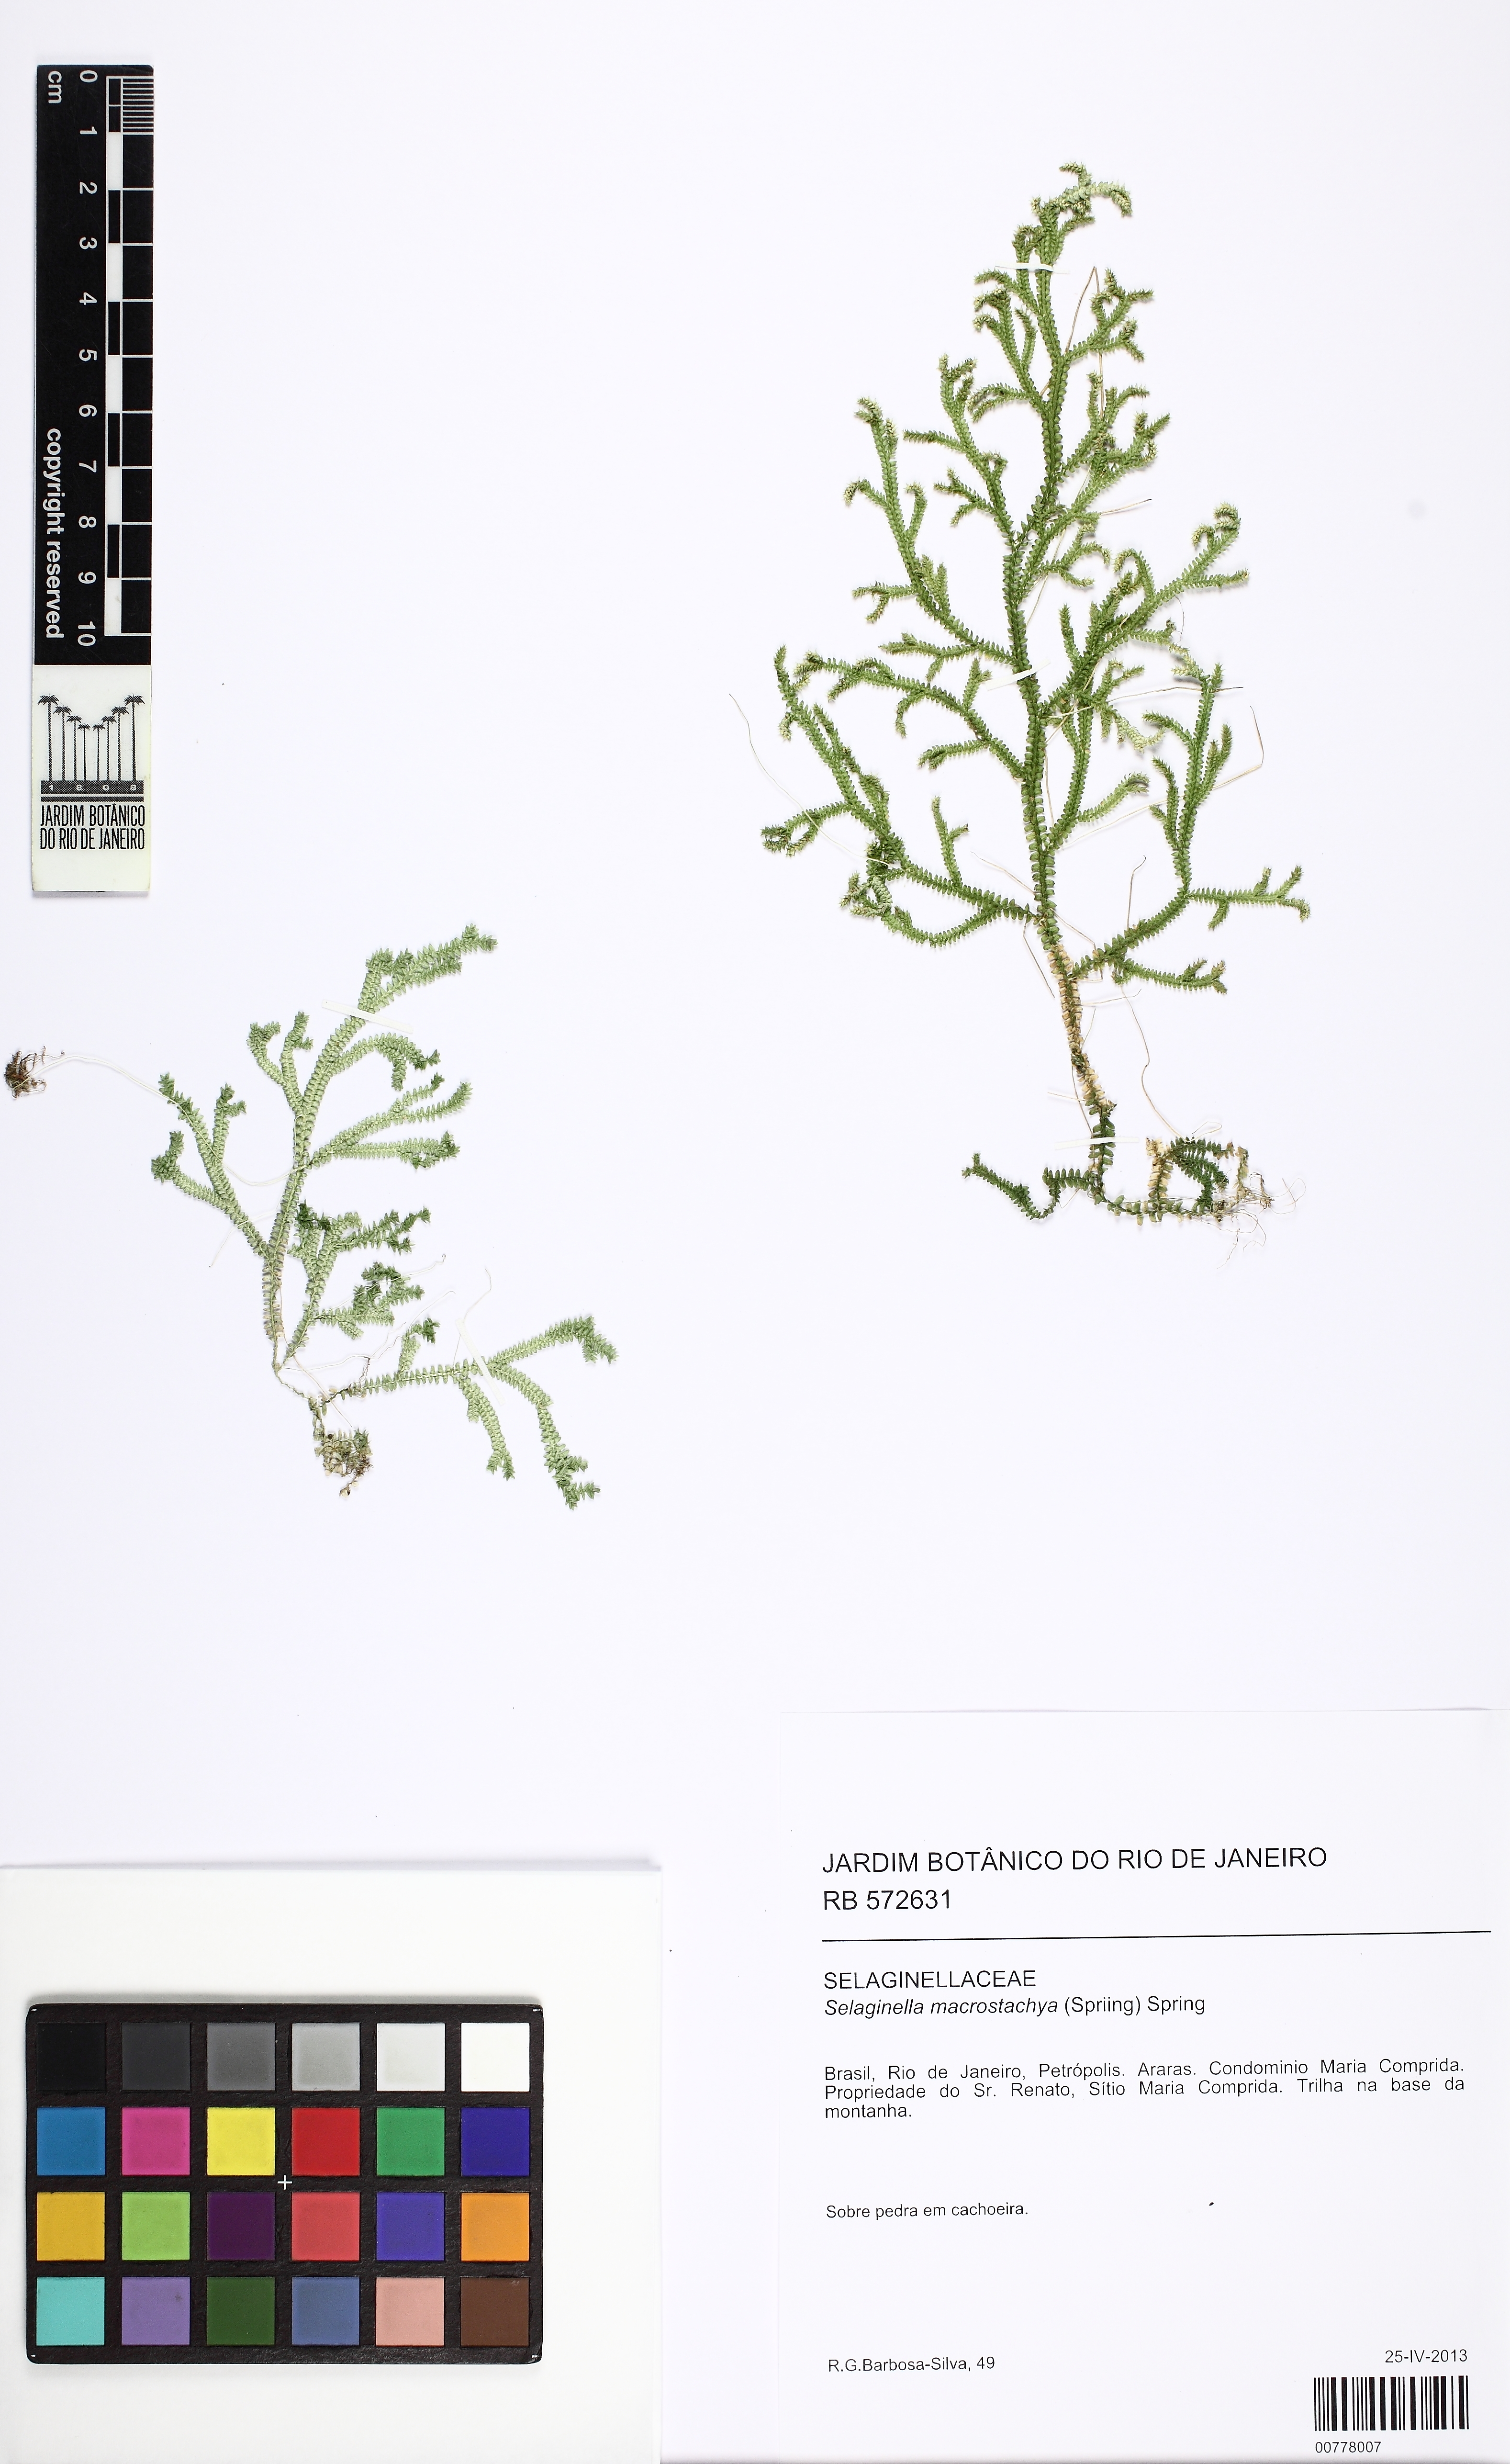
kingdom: Plantae
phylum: Tracheophyta
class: Lycopodiopsida
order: Selaginellales
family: Selaginellaceae
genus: Selaginella
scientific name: Selaginella macrostachya
